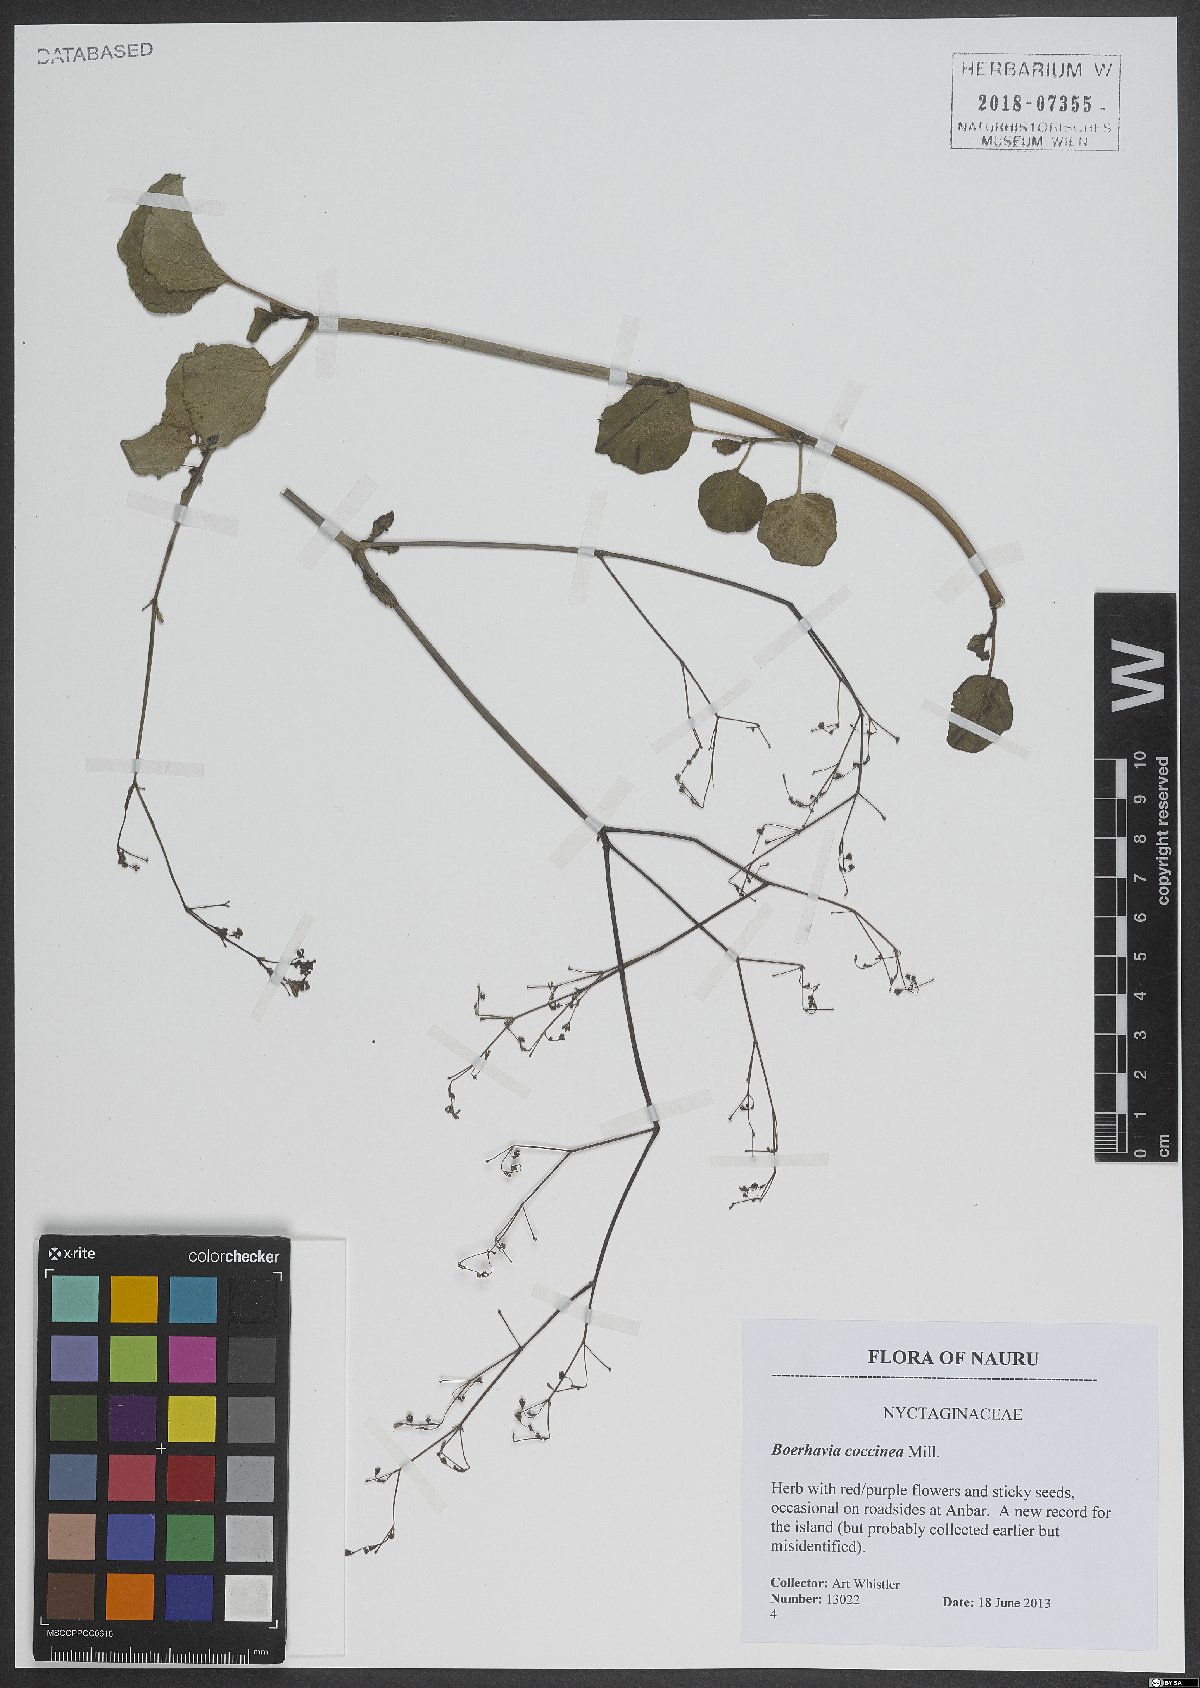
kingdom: Plantae
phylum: Tracheophyta
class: Magnoliopsida
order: Caryophyllales
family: Nyctaginaceae
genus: Boerhavia
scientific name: Boerhavia coccinea
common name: Scarlet spiderling
